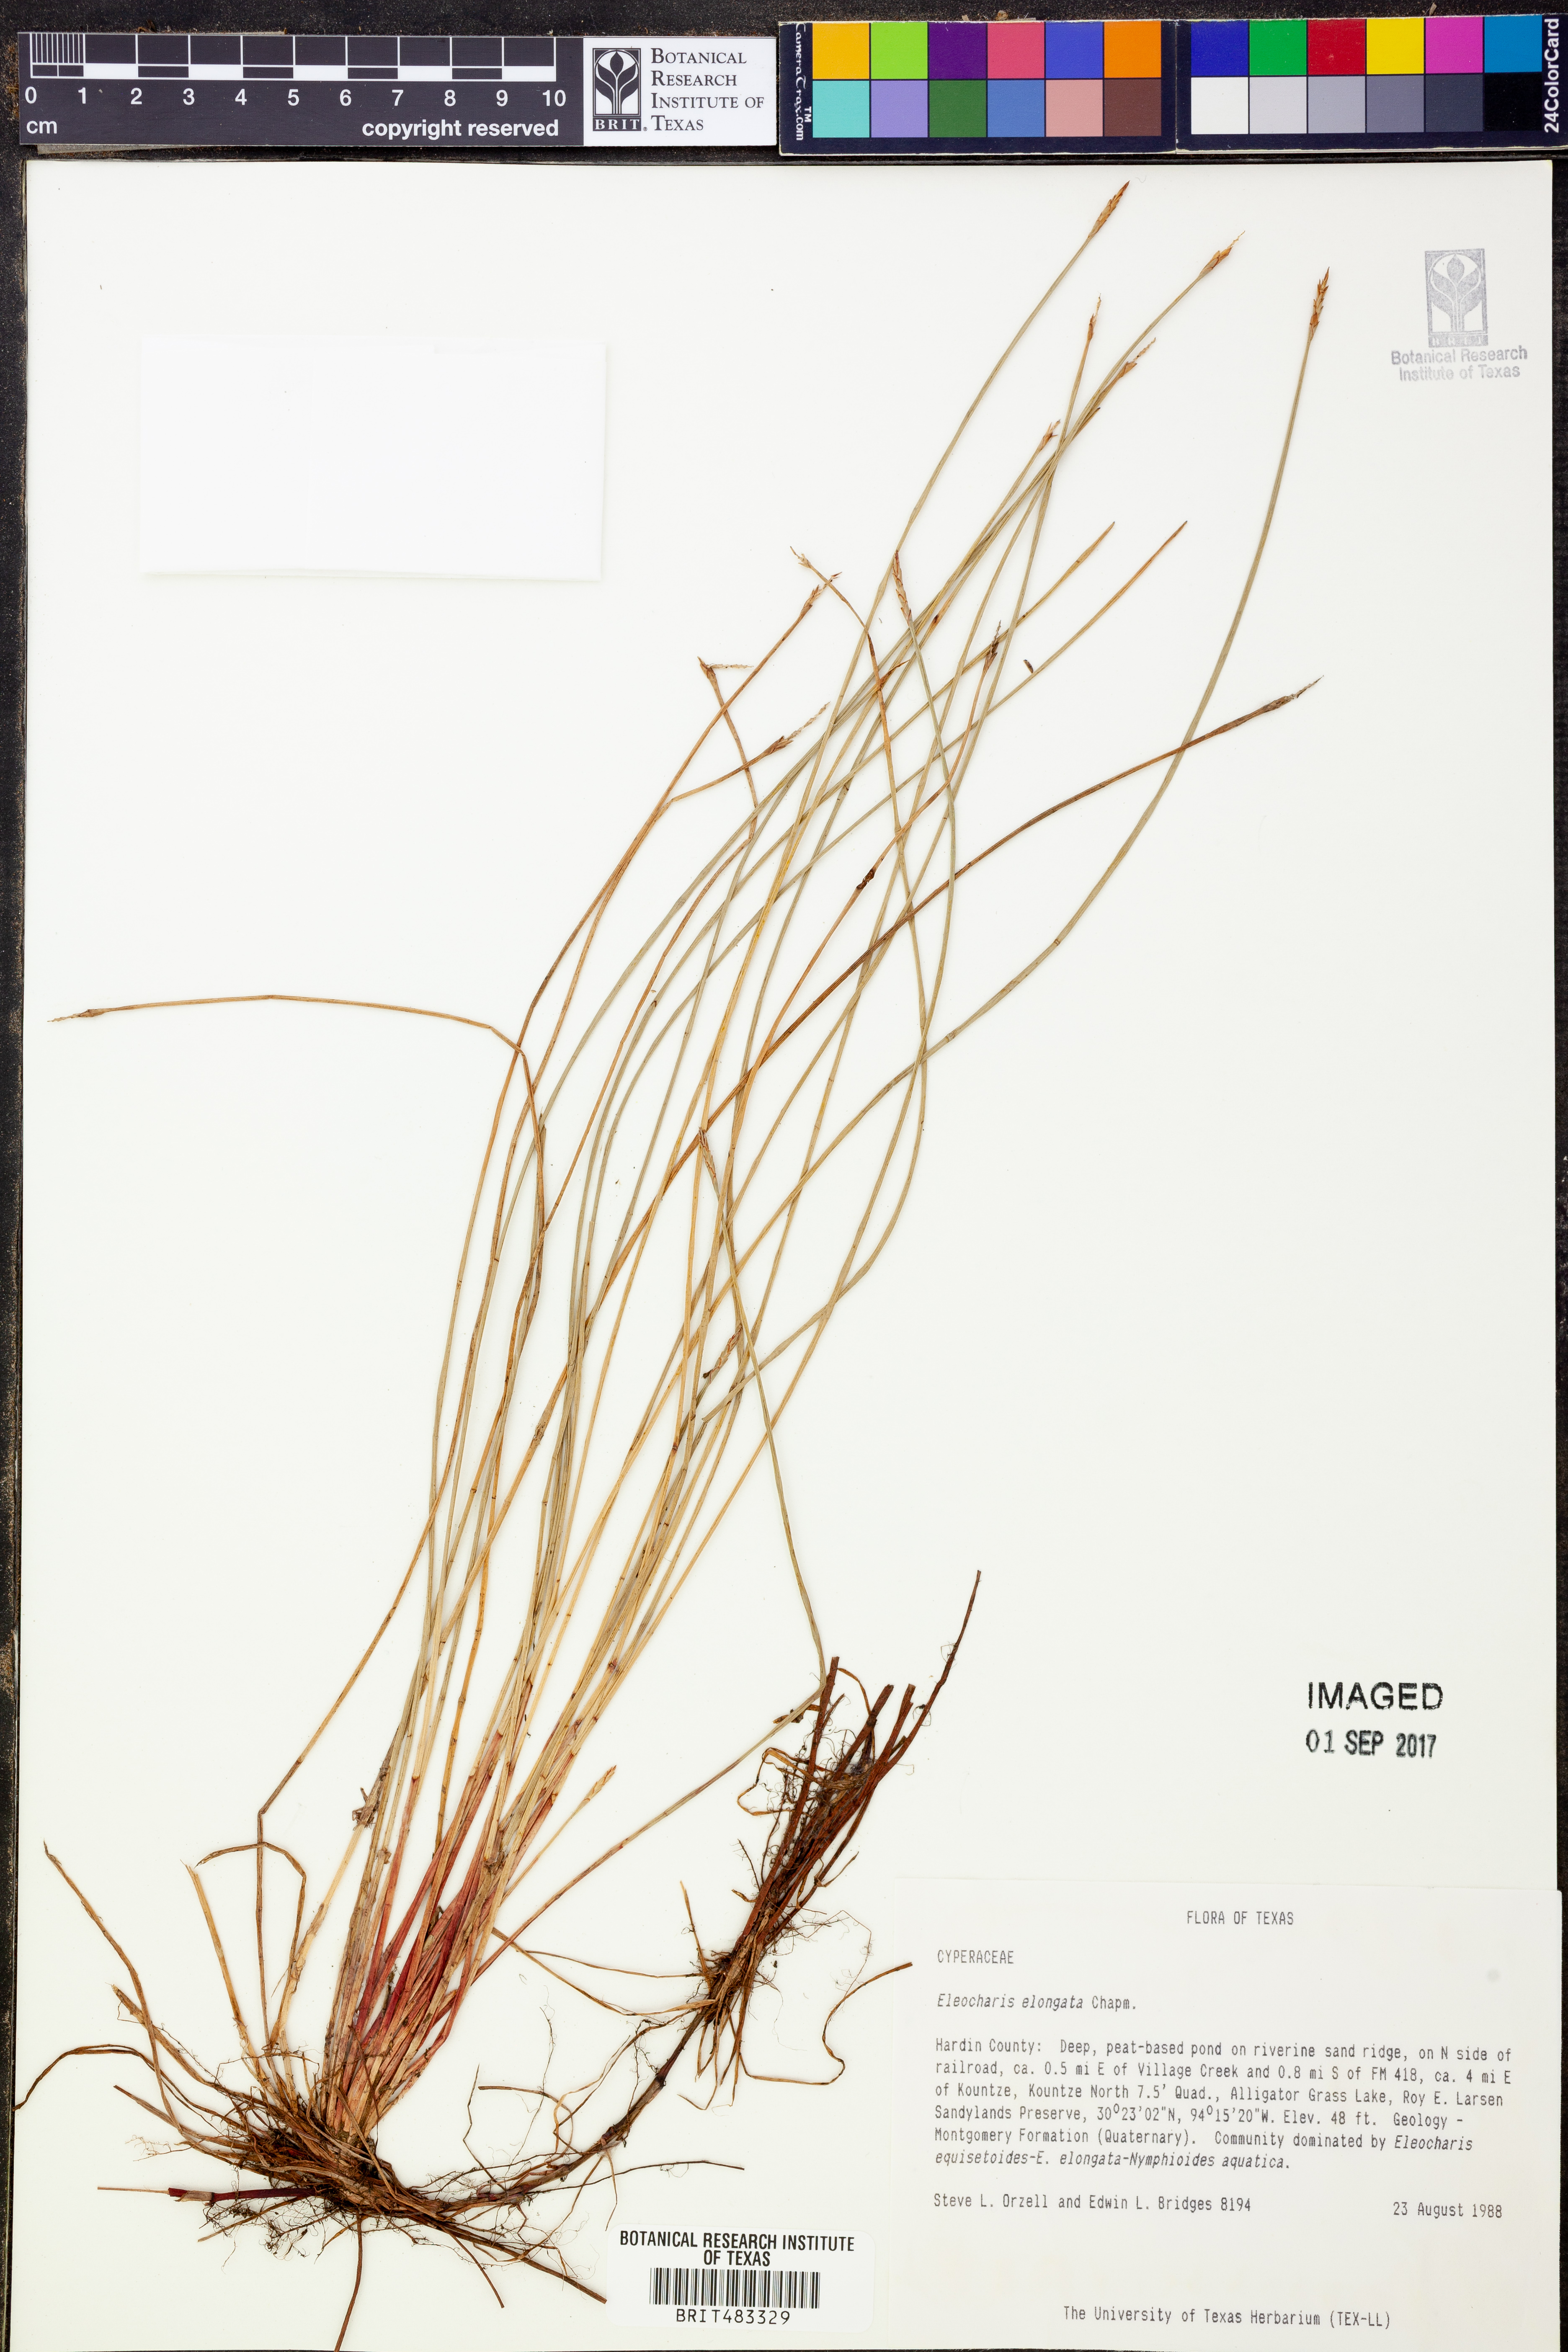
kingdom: Plantae
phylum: Tracheophyta
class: Liliopsida
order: Poales
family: Cyperaceae
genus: Eleocharis
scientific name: Eleocharis elongata
